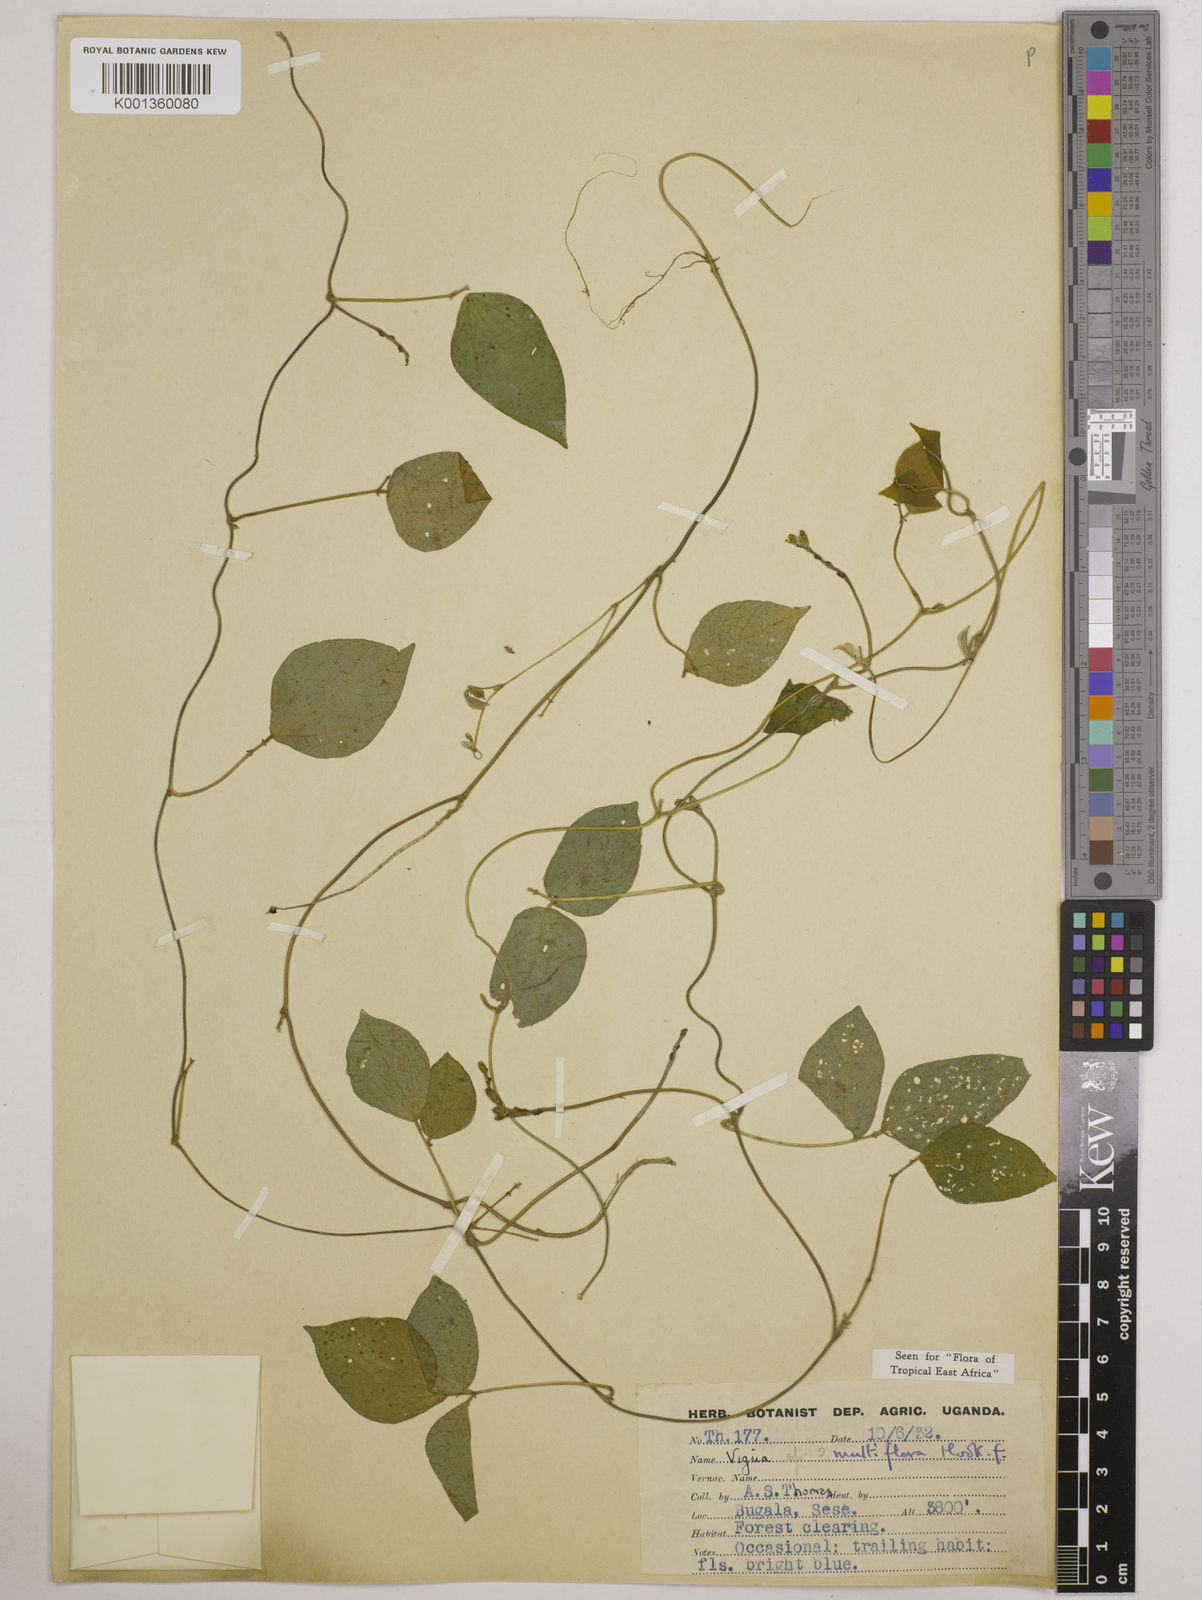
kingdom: Plantae
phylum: Tracheophyta
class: Magnoliopsida
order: Fabales
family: Fabaceae
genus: Vigna
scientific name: Vigna gracilis
